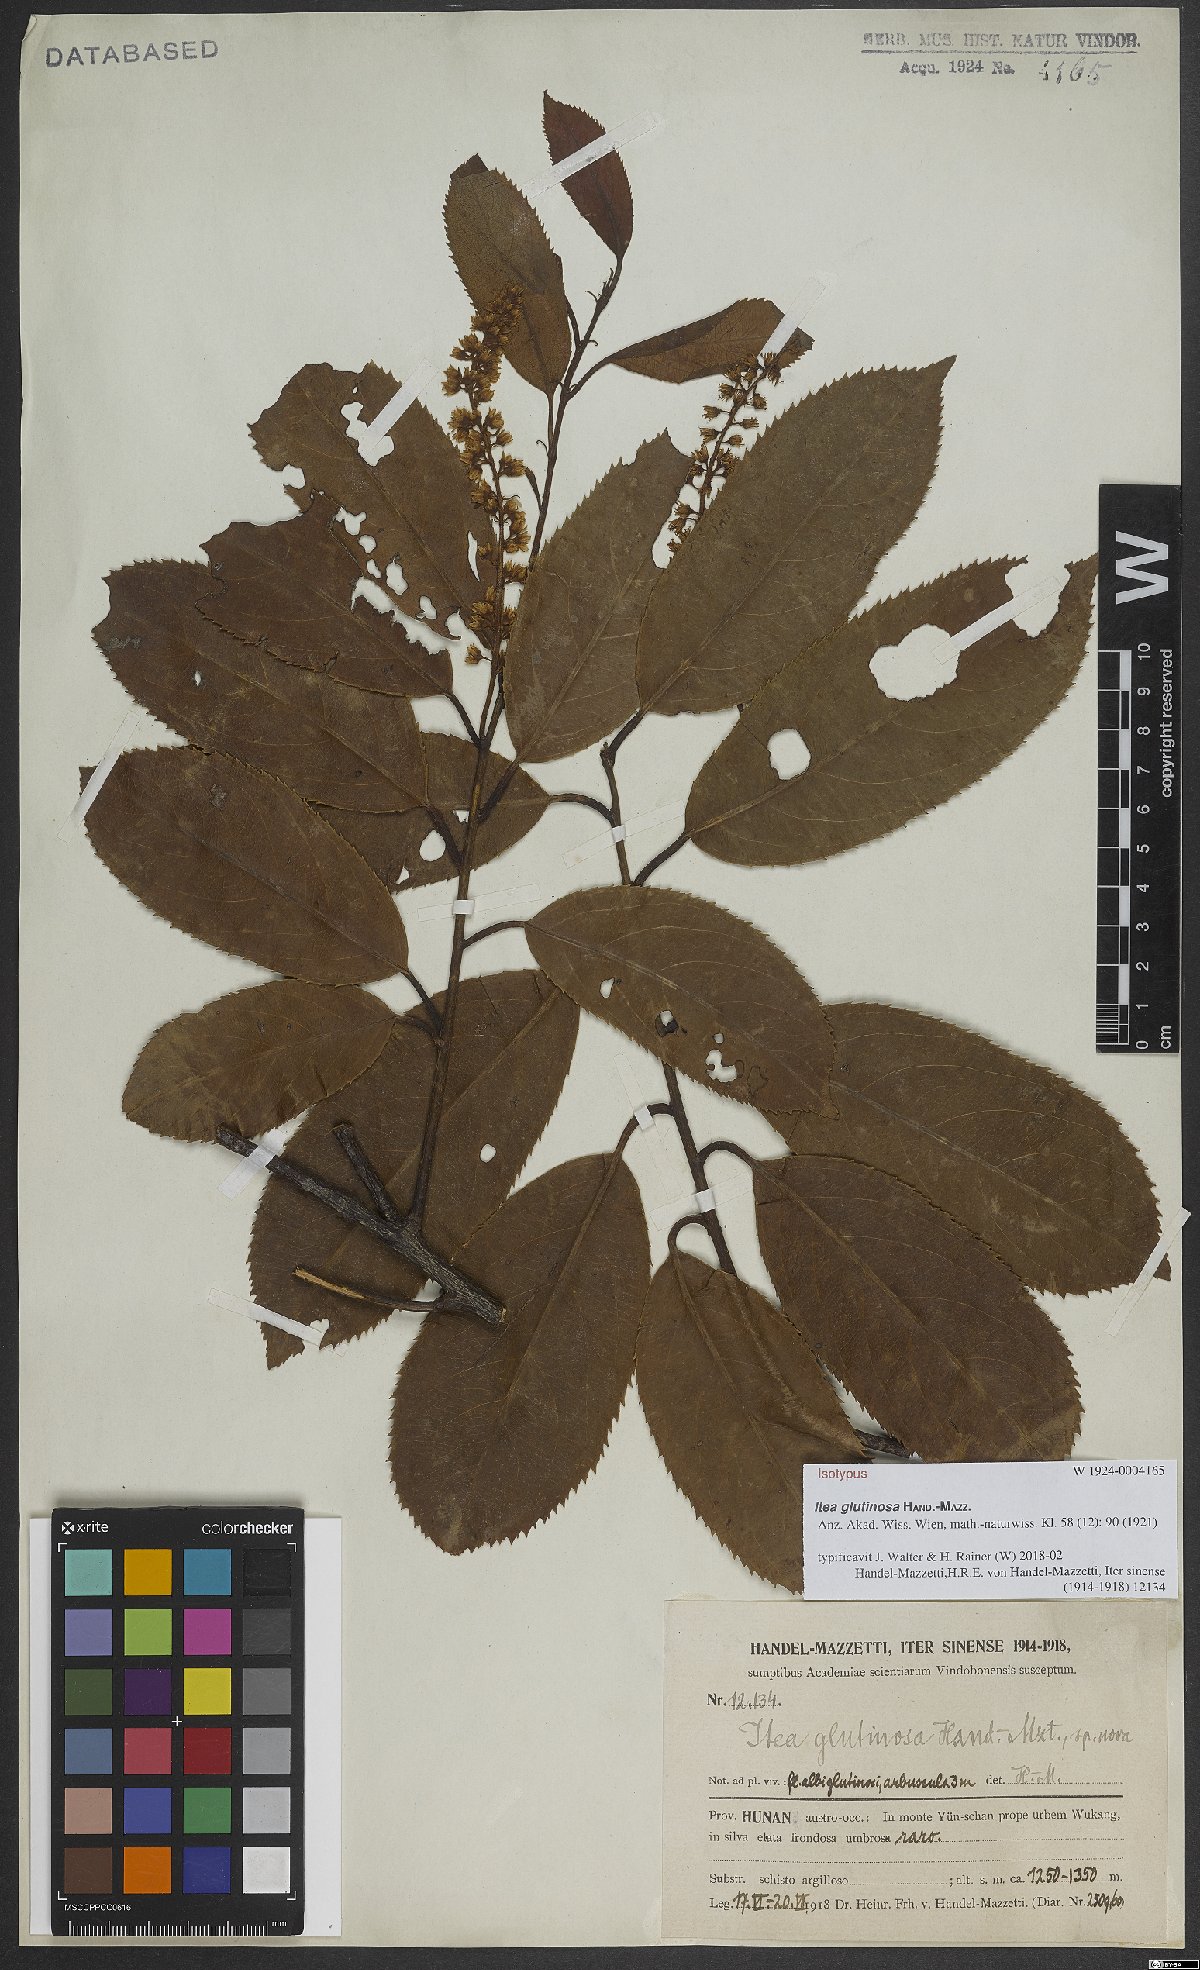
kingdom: Plantae
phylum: Tracheophyta
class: Magnoliopsida
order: Saxifragales
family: Iteaceae
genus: Itea
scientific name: Itea glutinosa
